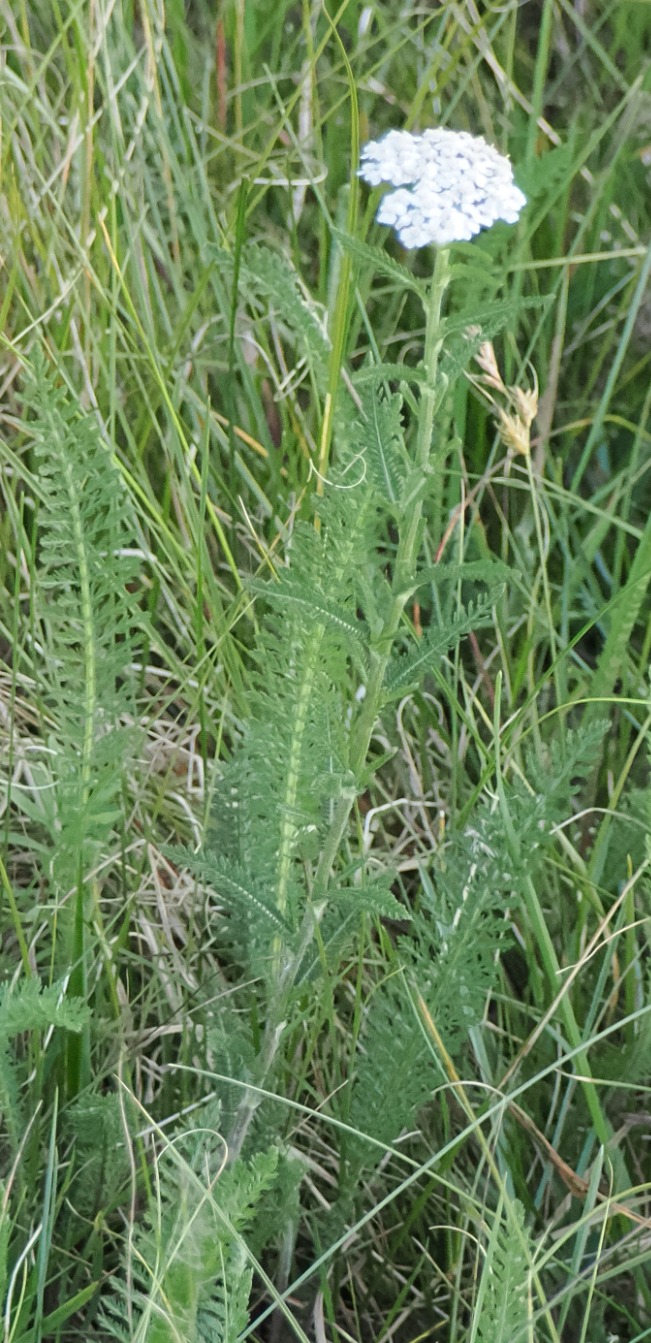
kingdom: Plantae
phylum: Tracheophyta
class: Magnoliopsida
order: Asterales
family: Asteraceae
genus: Achillea
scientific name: Achillea millefolium
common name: Almindelig røllike
